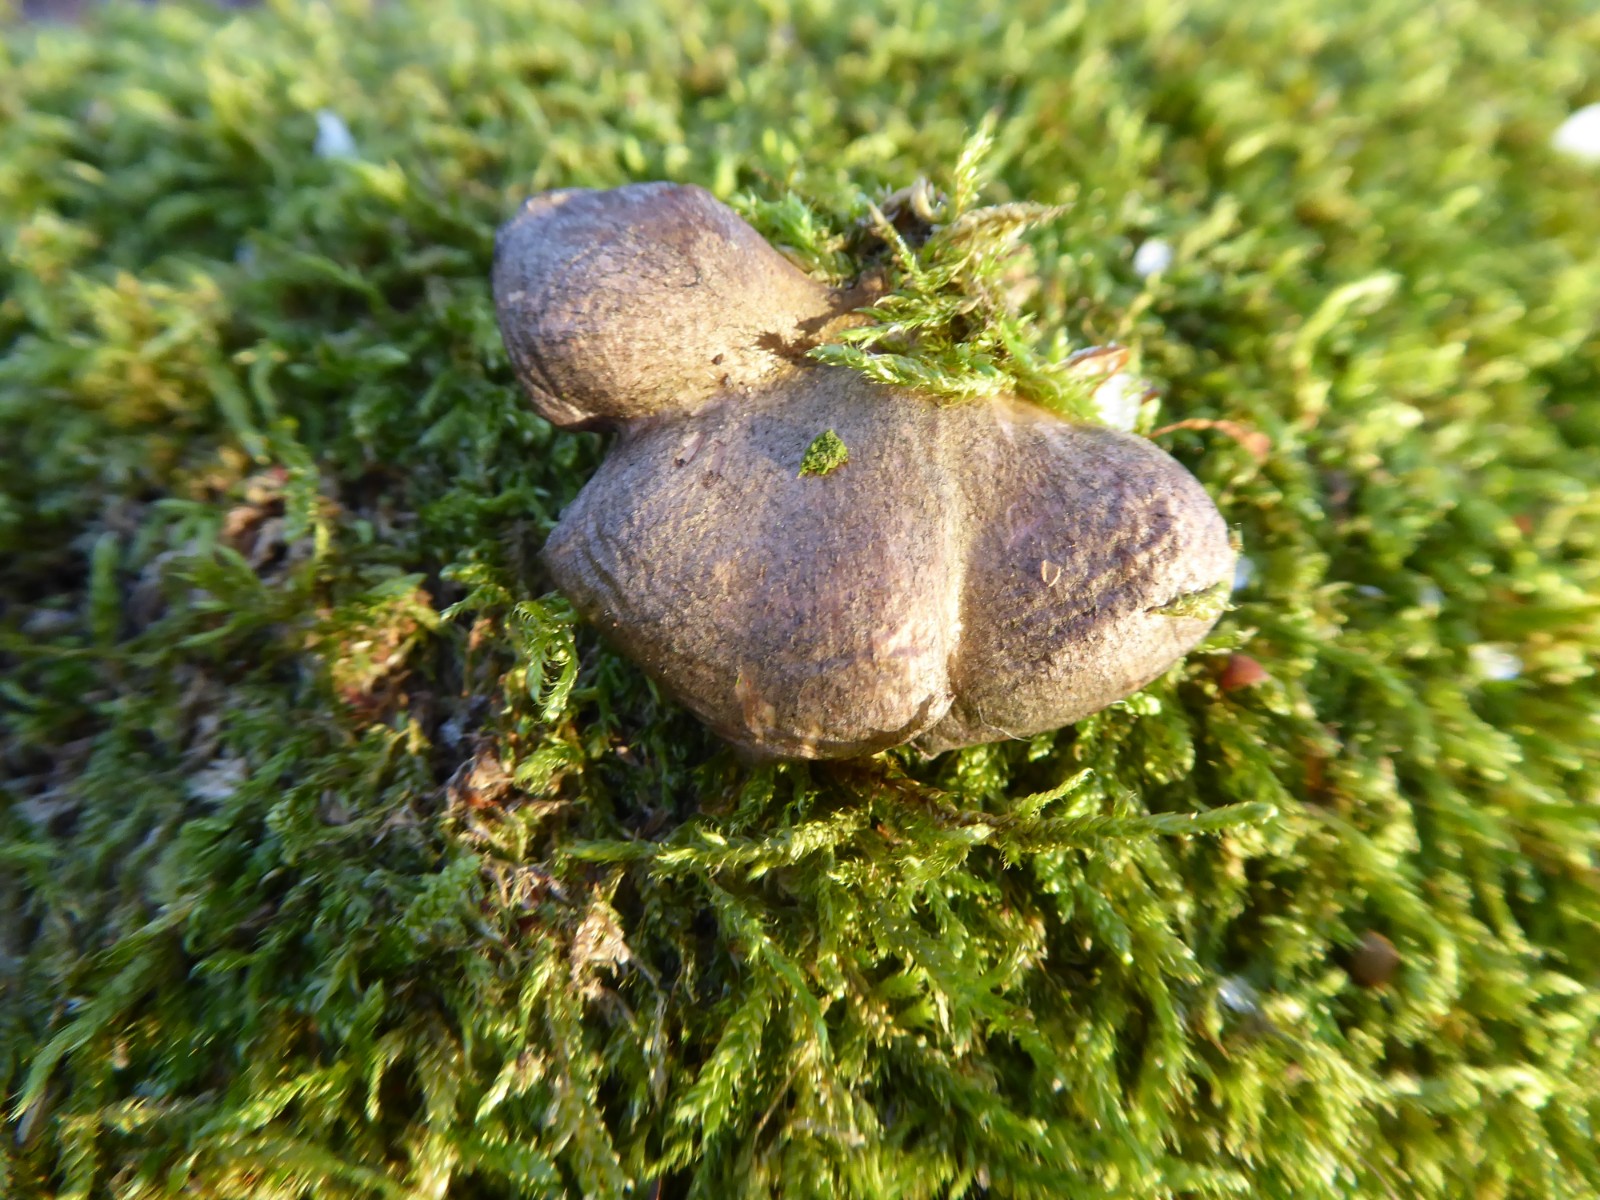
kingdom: Fungi
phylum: Basidiomycota
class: Agaricomycetes
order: Agaricales
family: Sarcomyxaceae
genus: Sarcomyxa
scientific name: Sarcomyxa serotina
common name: gummihat
